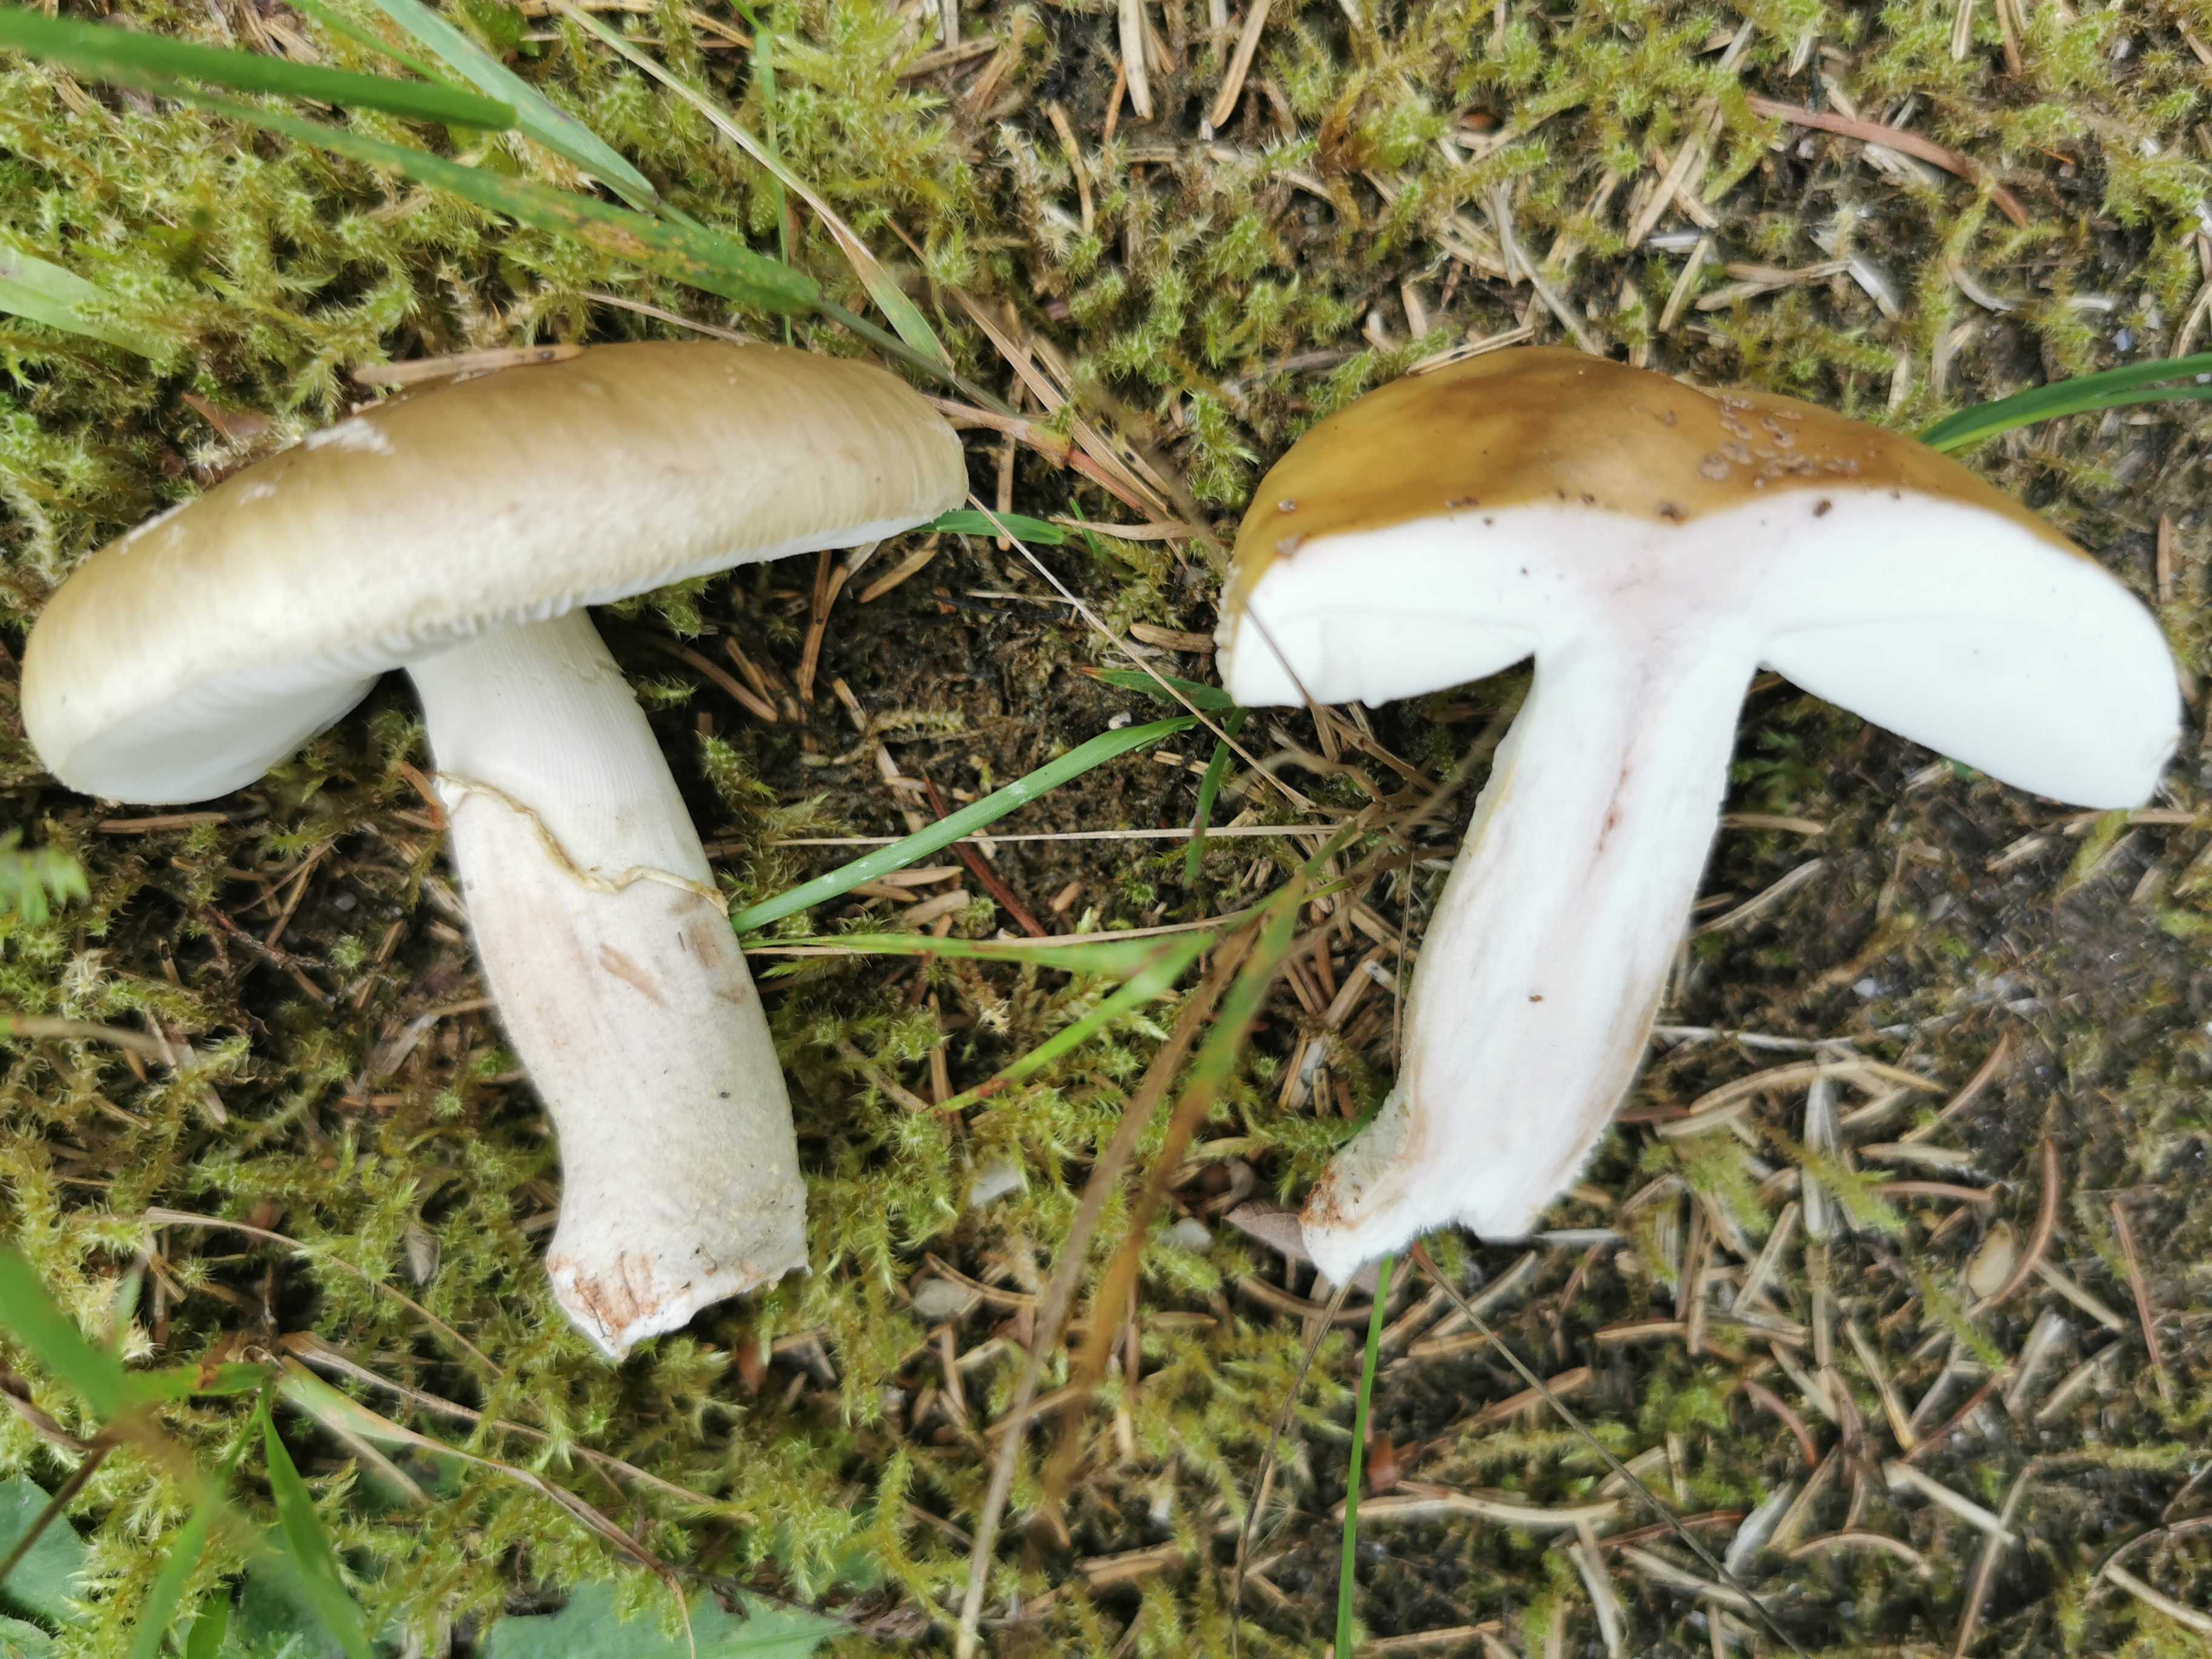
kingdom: Fungi
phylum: Basidiomycota
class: Agaricomycetes
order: Agaricales
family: Amanitaceae
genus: Amanita
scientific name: Amanita rubescens
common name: rødmende fluesvamp
